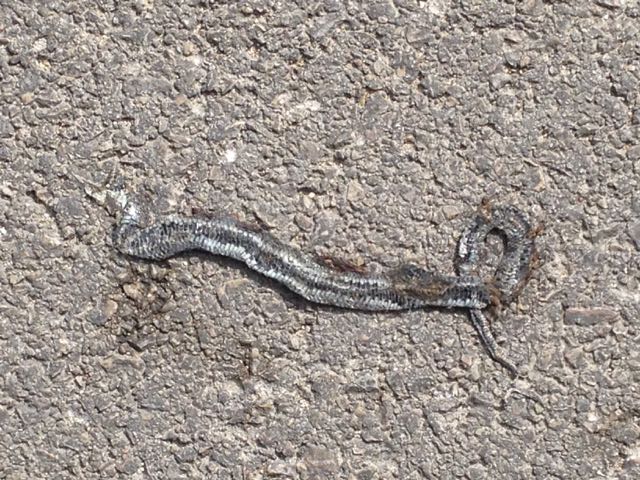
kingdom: Animalia
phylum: Chordata
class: Squamata
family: Colubridae
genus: Natrix
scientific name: Natrix natrix
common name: Grass snake
